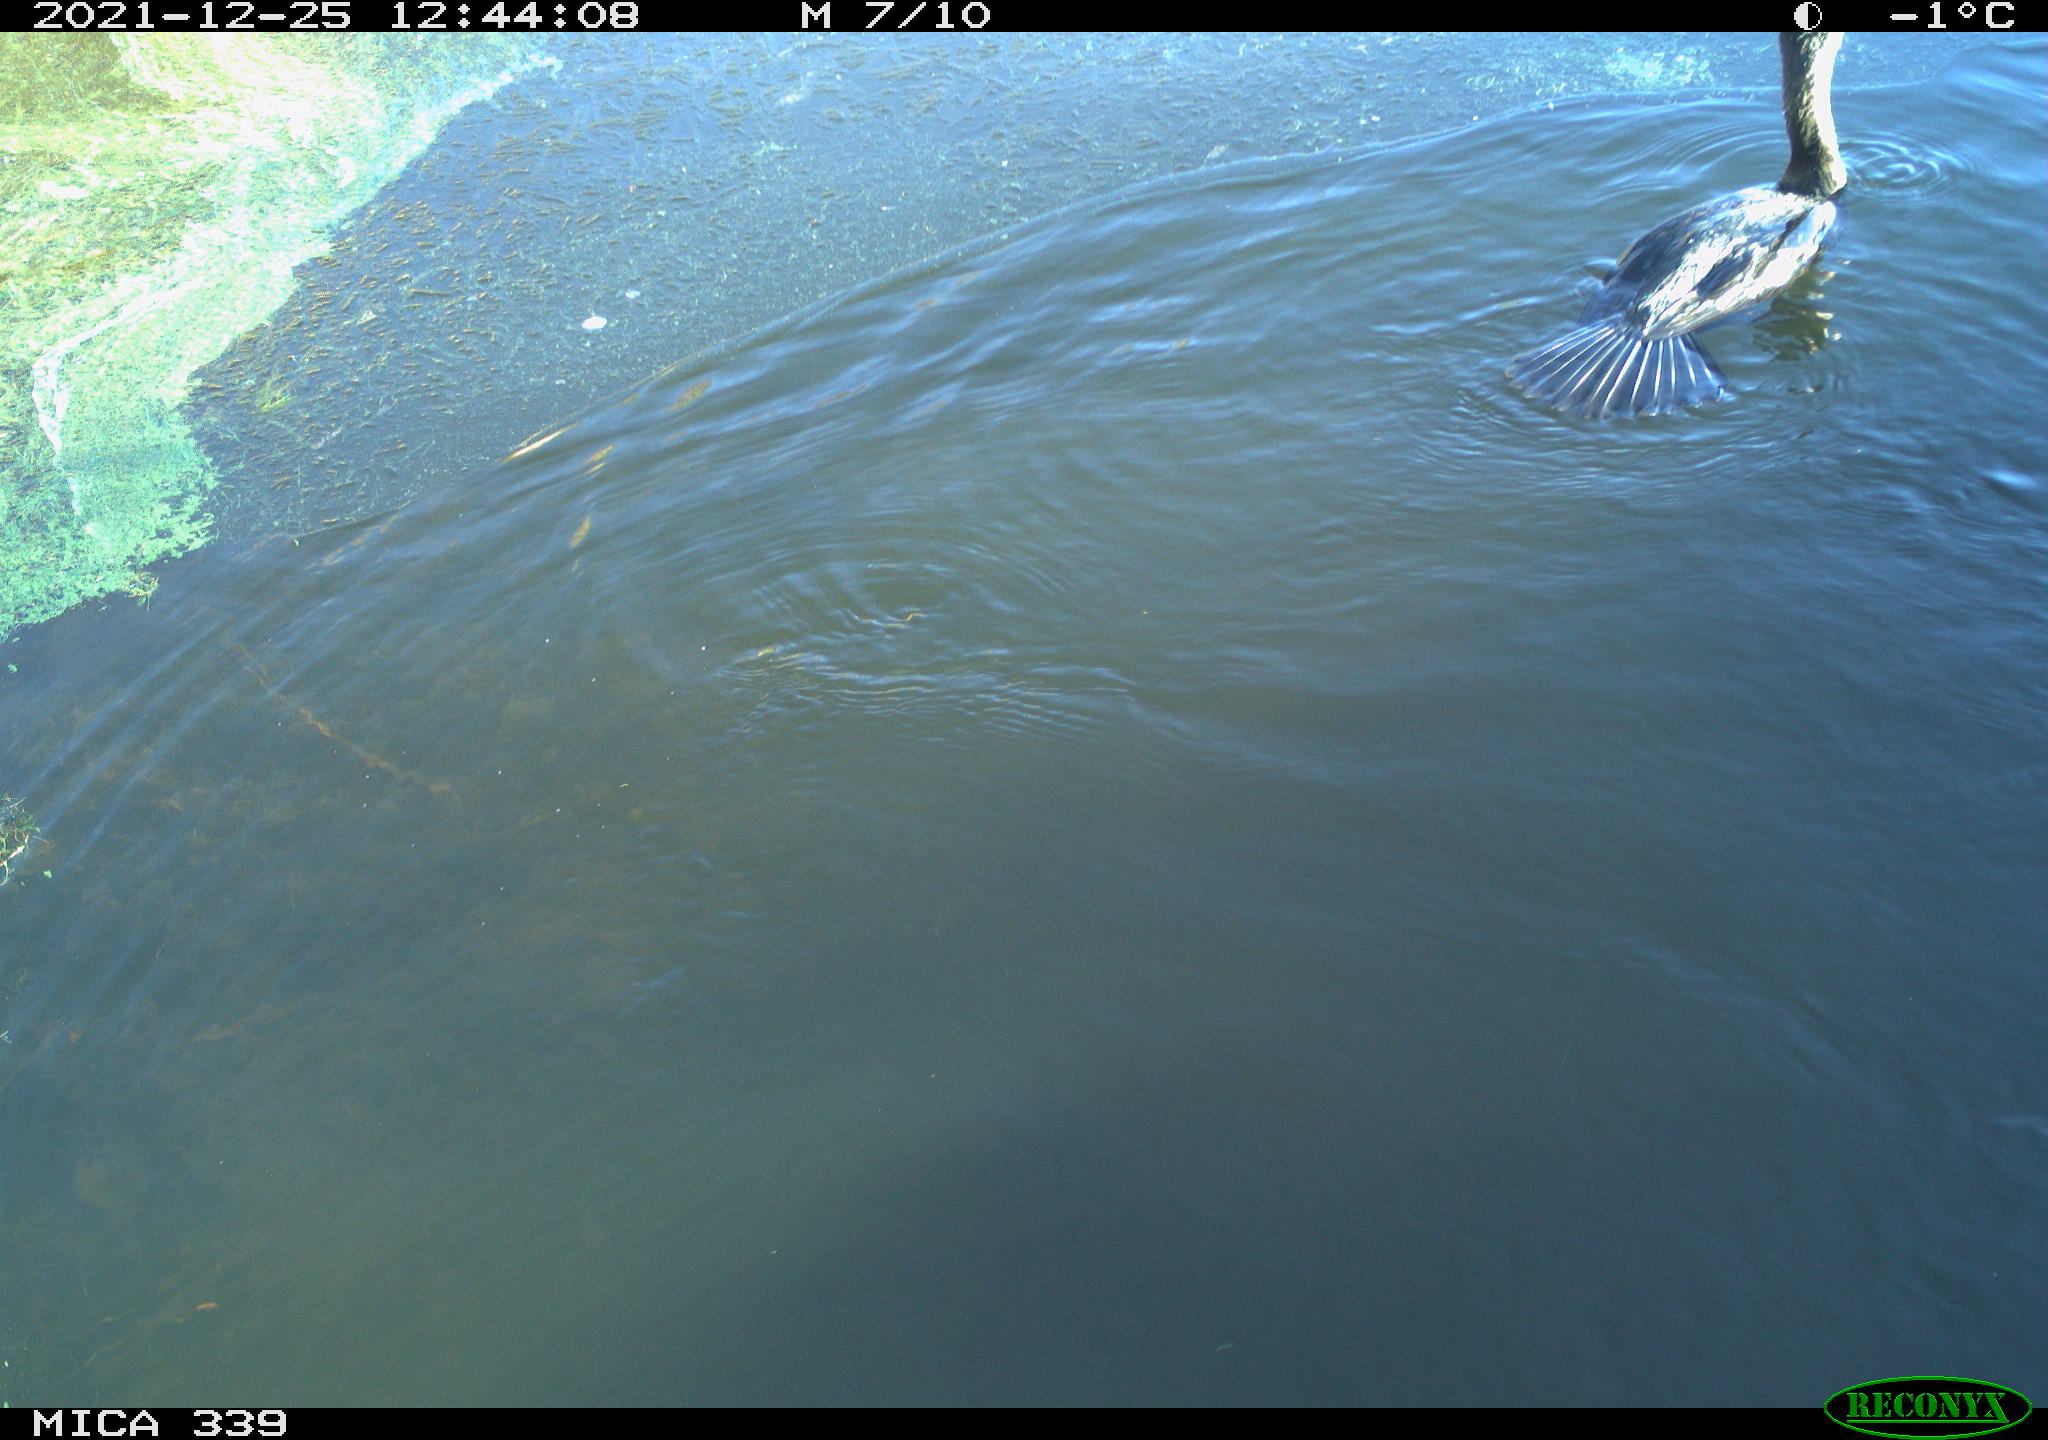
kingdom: Animalia
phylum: Chordata
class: Aves
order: Suliformes
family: Phalacrocoracidae
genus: Phalacrocorax
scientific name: Phalacrocorax carbo
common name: Great cormorant
